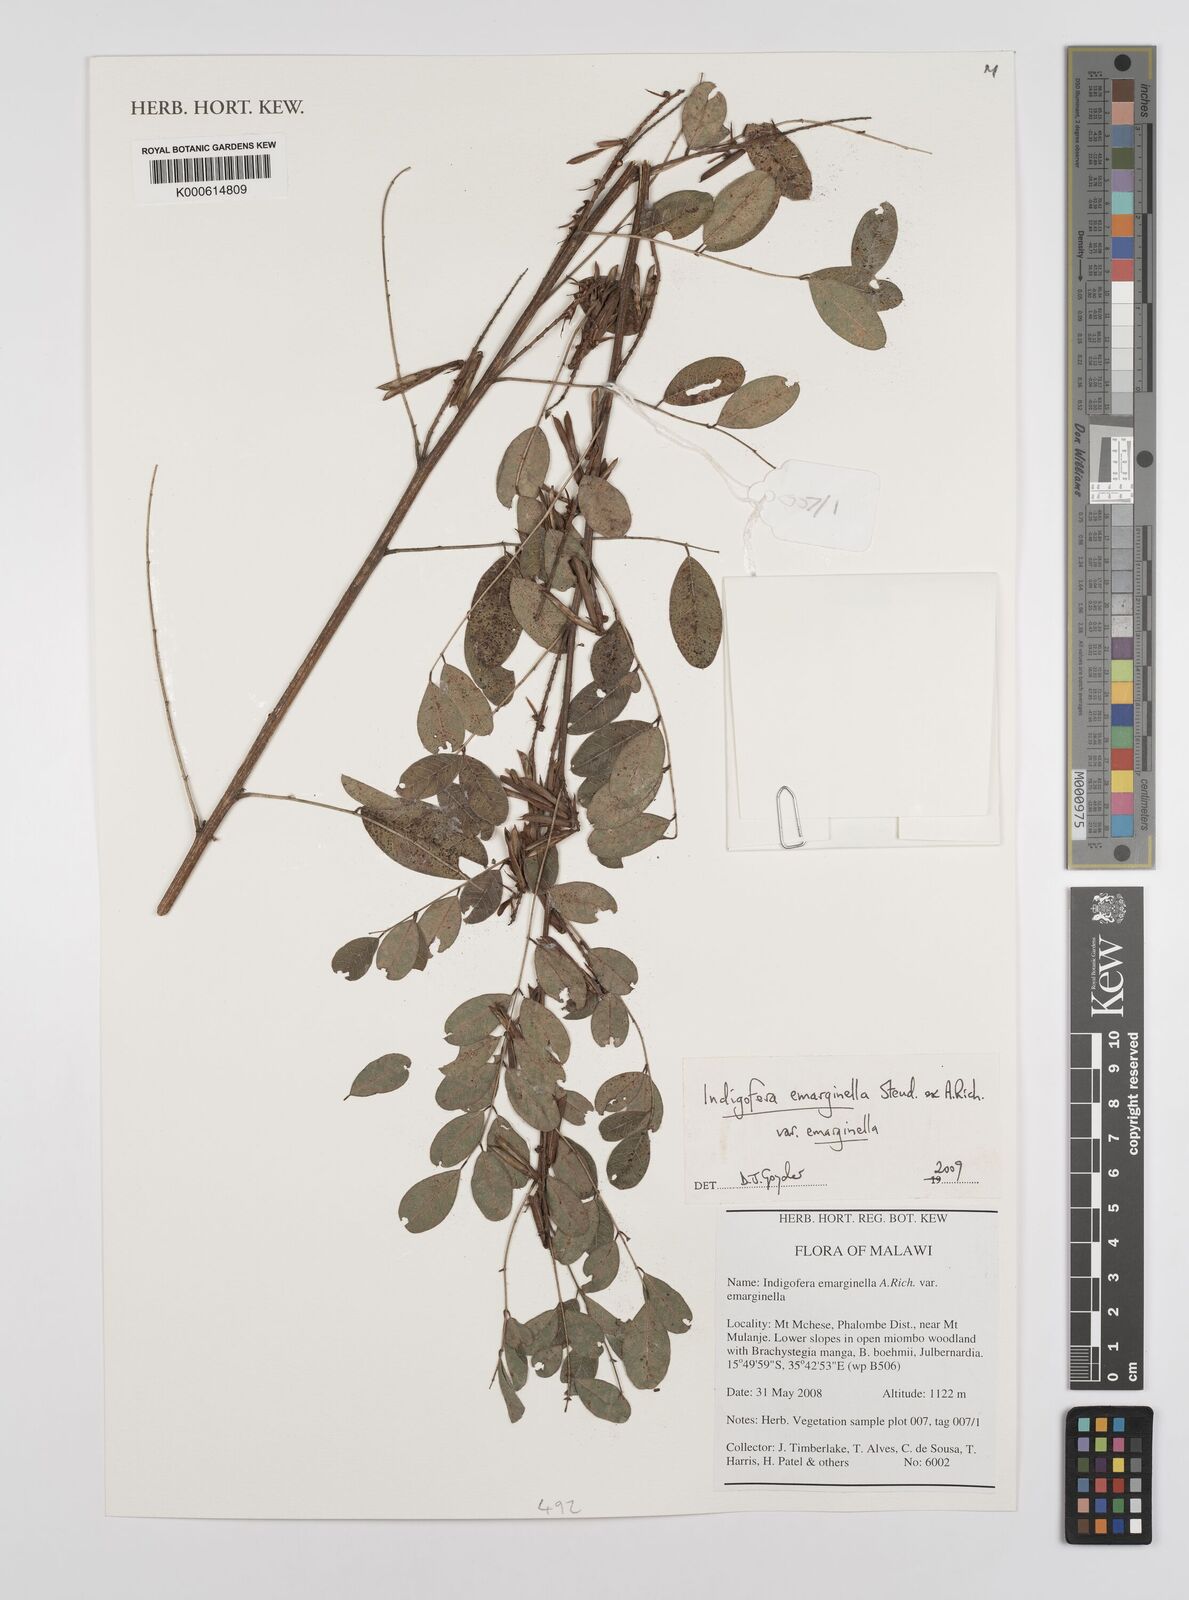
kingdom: Plantae
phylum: Tracheophyta
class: Magnoliopsida
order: Fabales
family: Fabaceae
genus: Indigofera
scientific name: Indigofera emarginella
